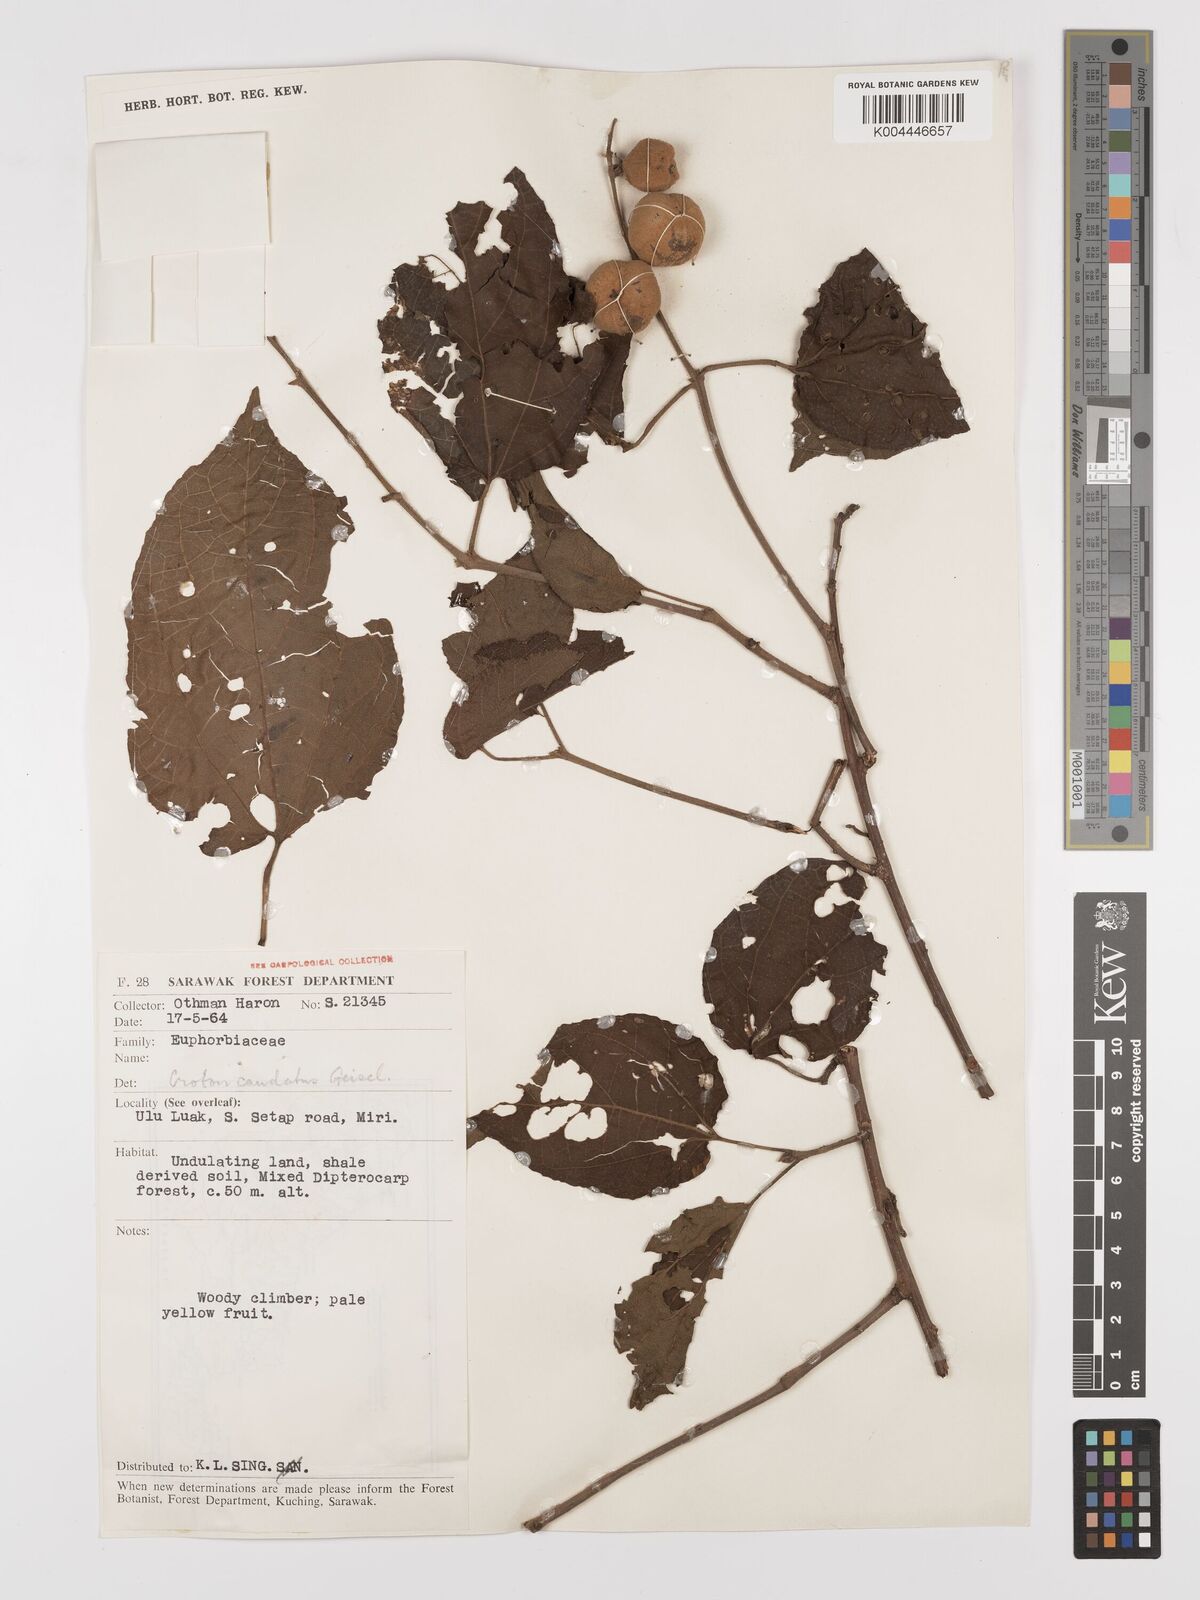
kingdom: Plantae
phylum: Tracheophyta
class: Magnoliopsida
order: Malpighiales
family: Euphorbiaceae
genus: Croton
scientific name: Croton caudatus
